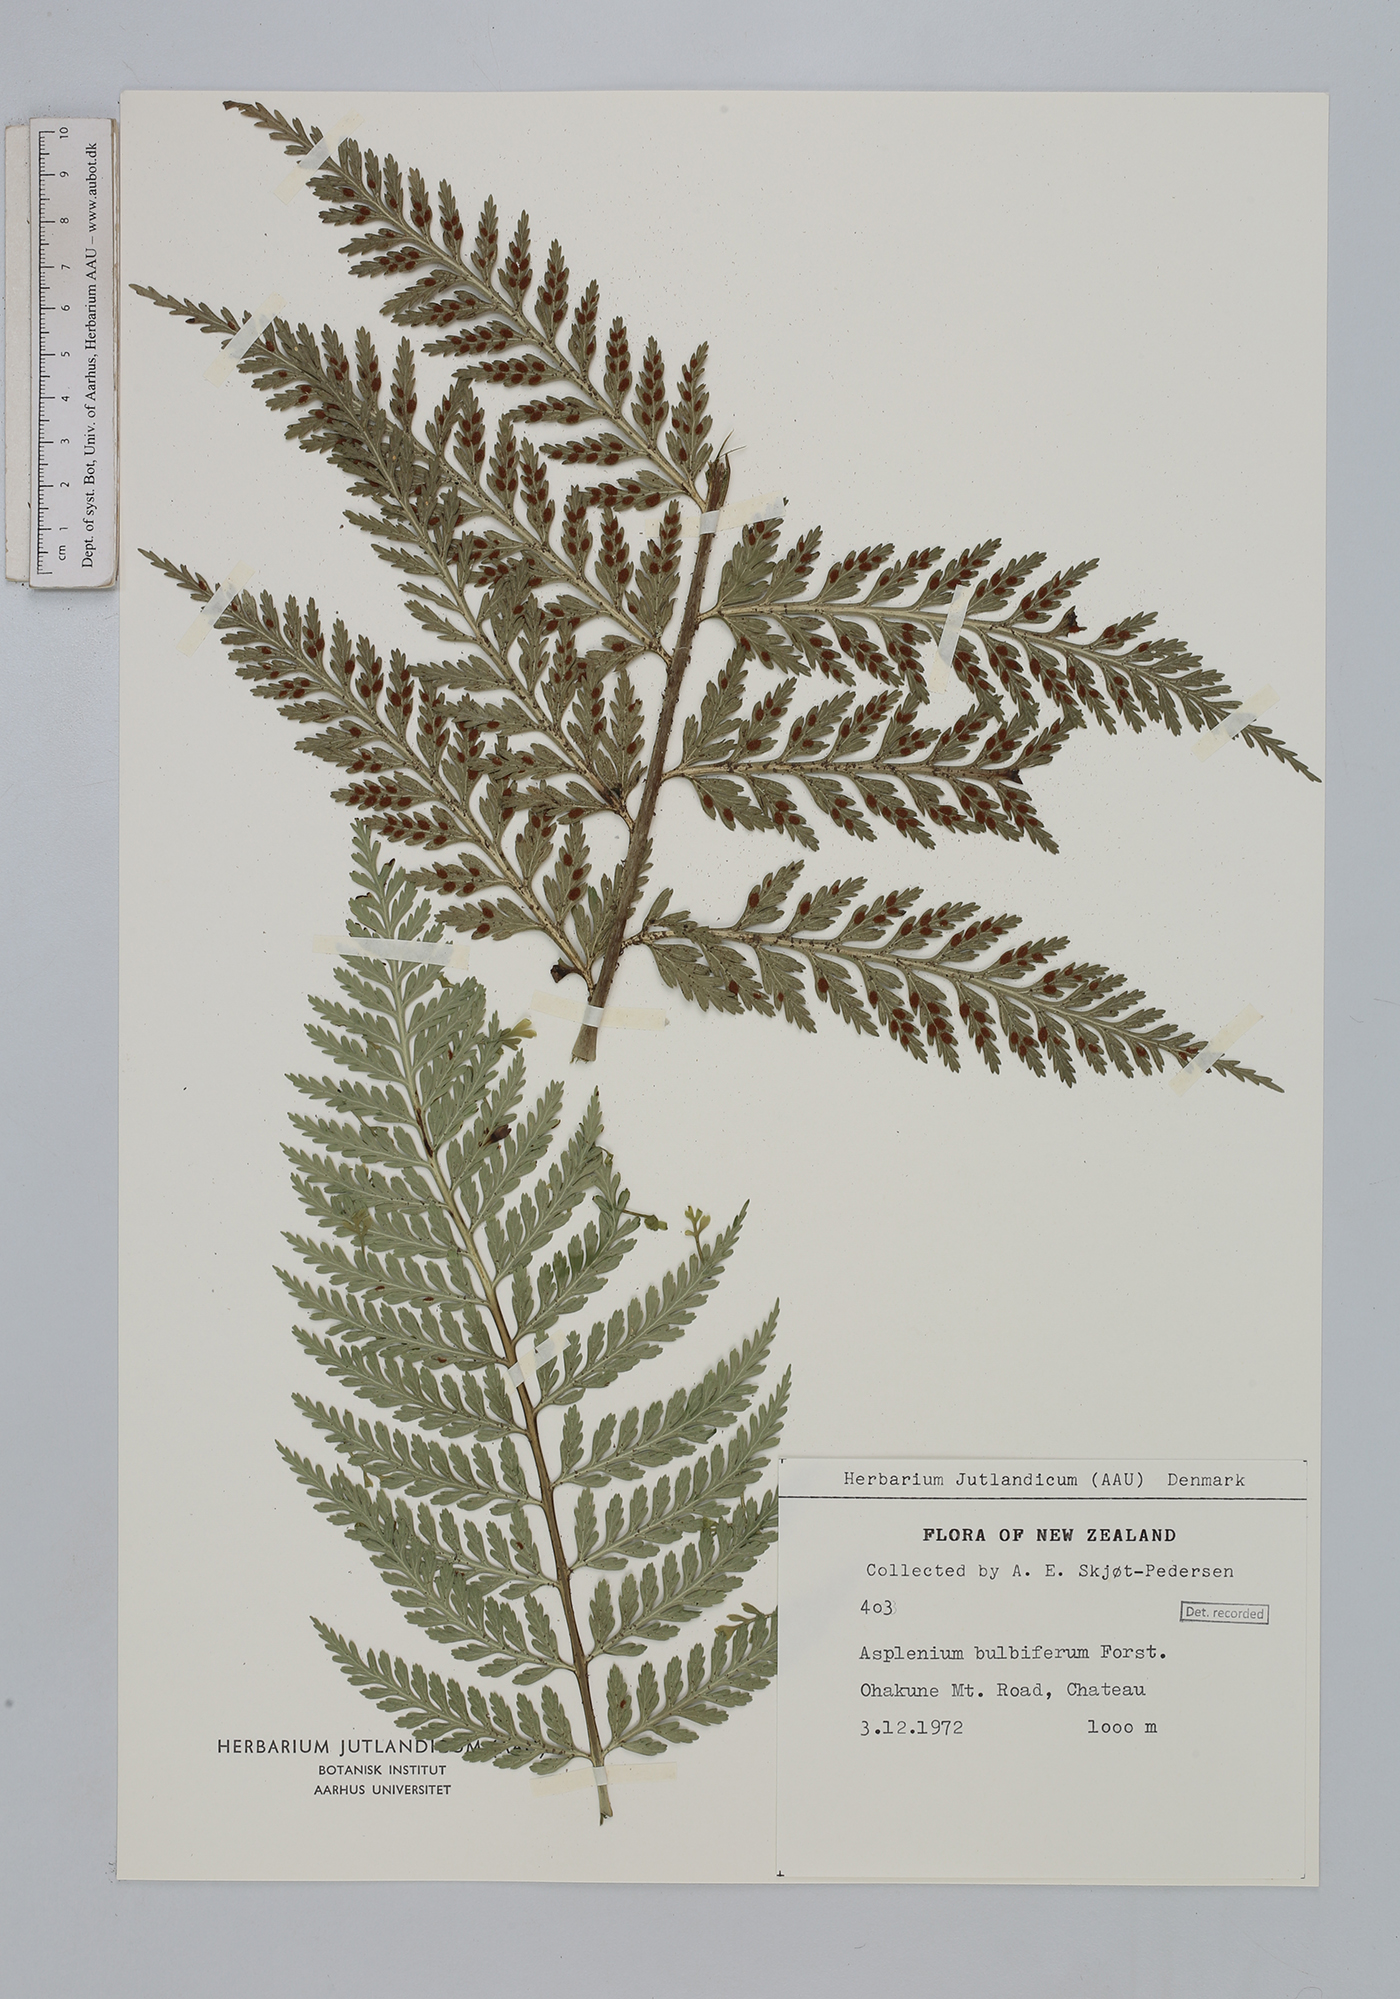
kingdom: Plantae
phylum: Tracheophyta
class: Polypodiopsida
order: Polypodiales
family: Aspleniaceae
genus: Asplenium
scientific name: Asplenium bulbiferum
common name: Mother fern
